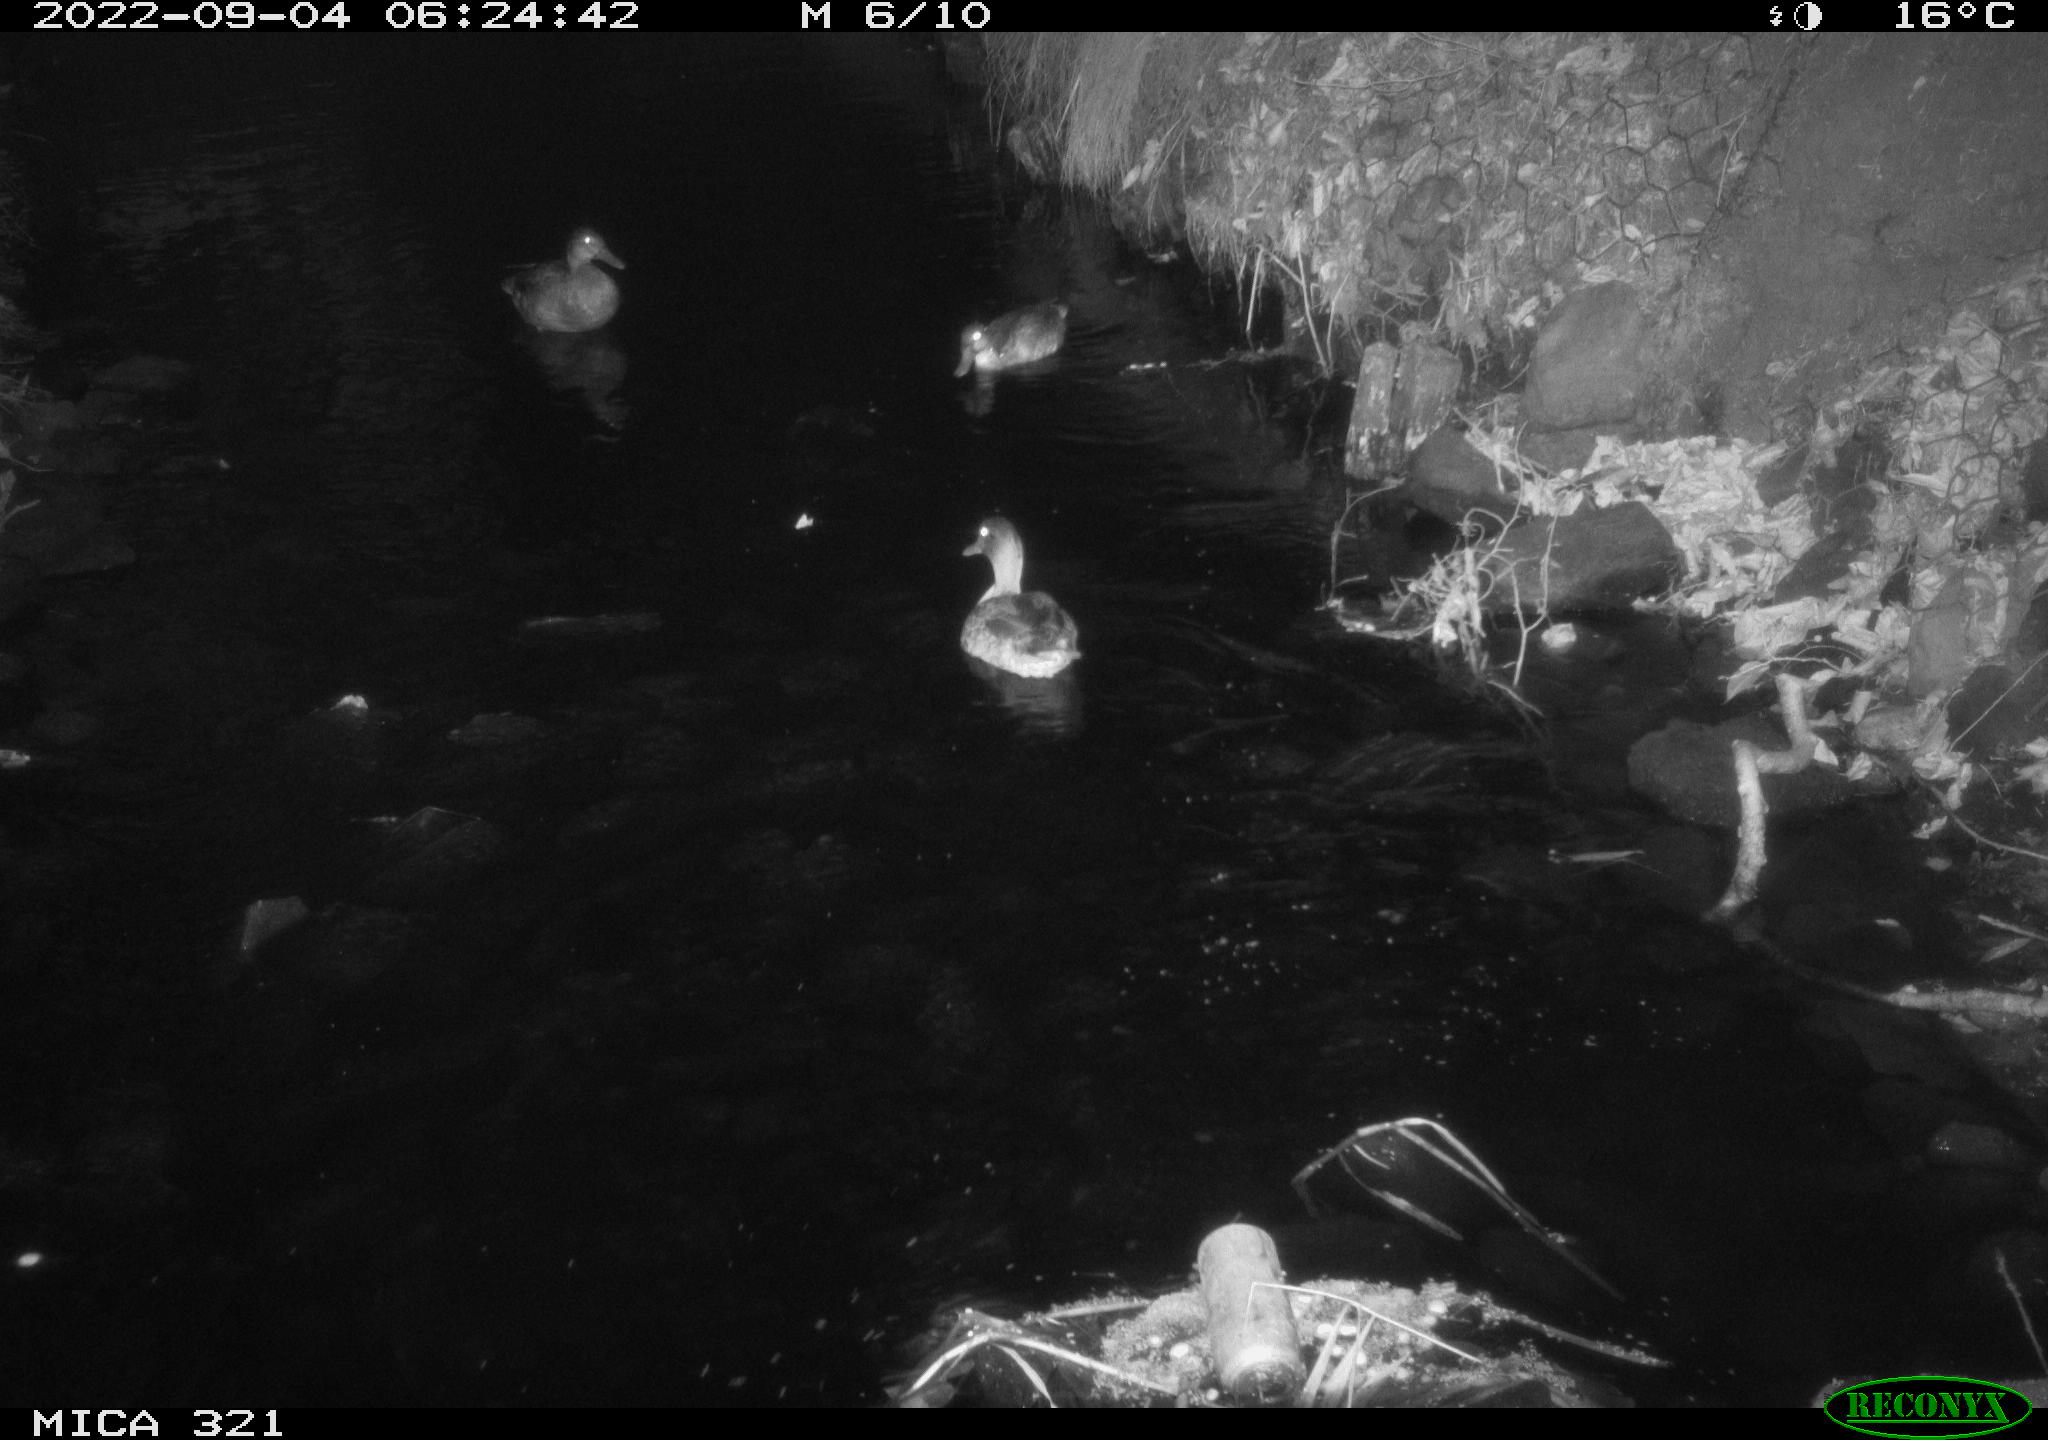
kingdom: Animalia
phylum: Chordata
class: Aves
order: Anseriformes
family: Anatidae
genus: Anas
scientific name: Anas platyrhynchos
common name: Mallard
